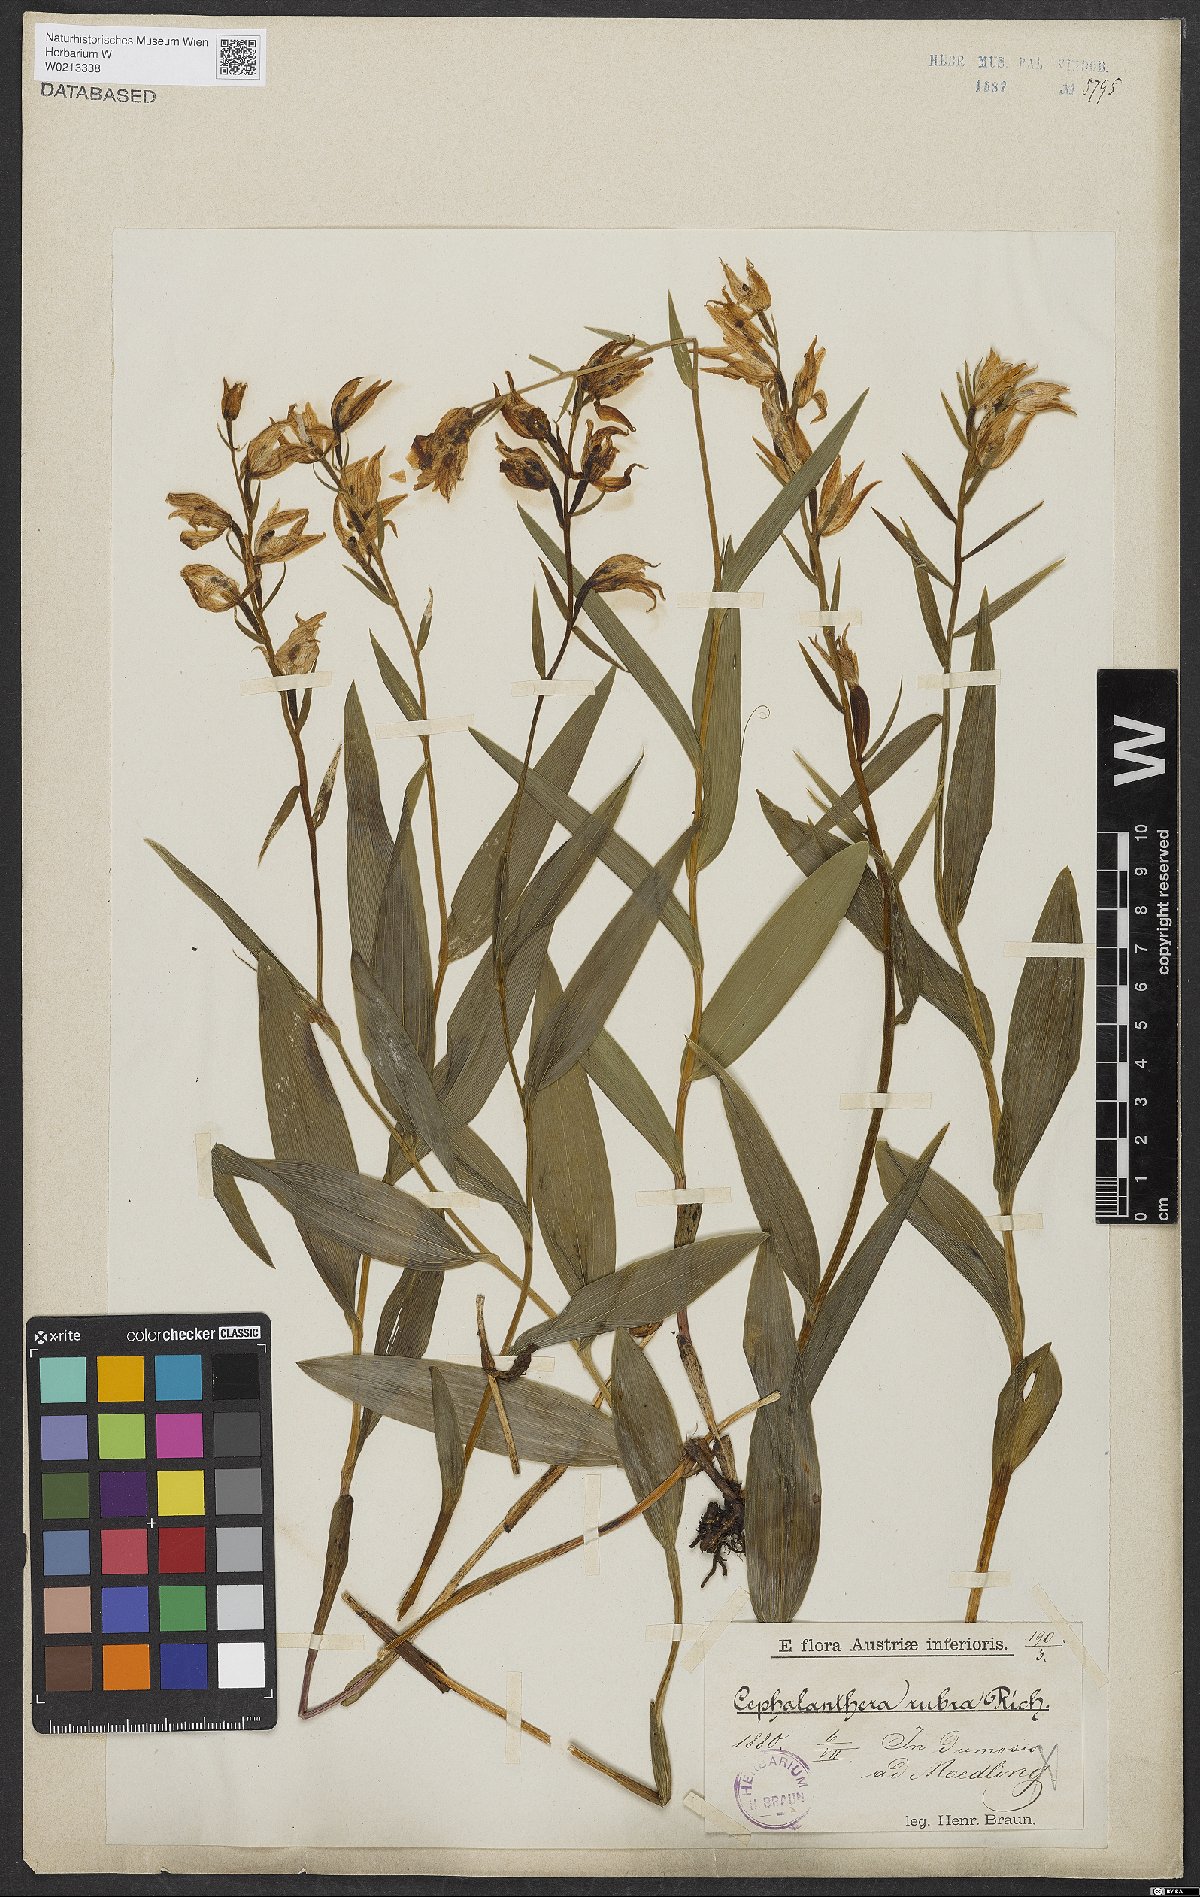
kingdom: Plantae
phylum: Tracheophyta
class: Liliopsida
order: Asparagales
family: Orchidaceae
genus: Cephalanthera
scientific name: Cephalanthera rubra
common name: Red helleborine
